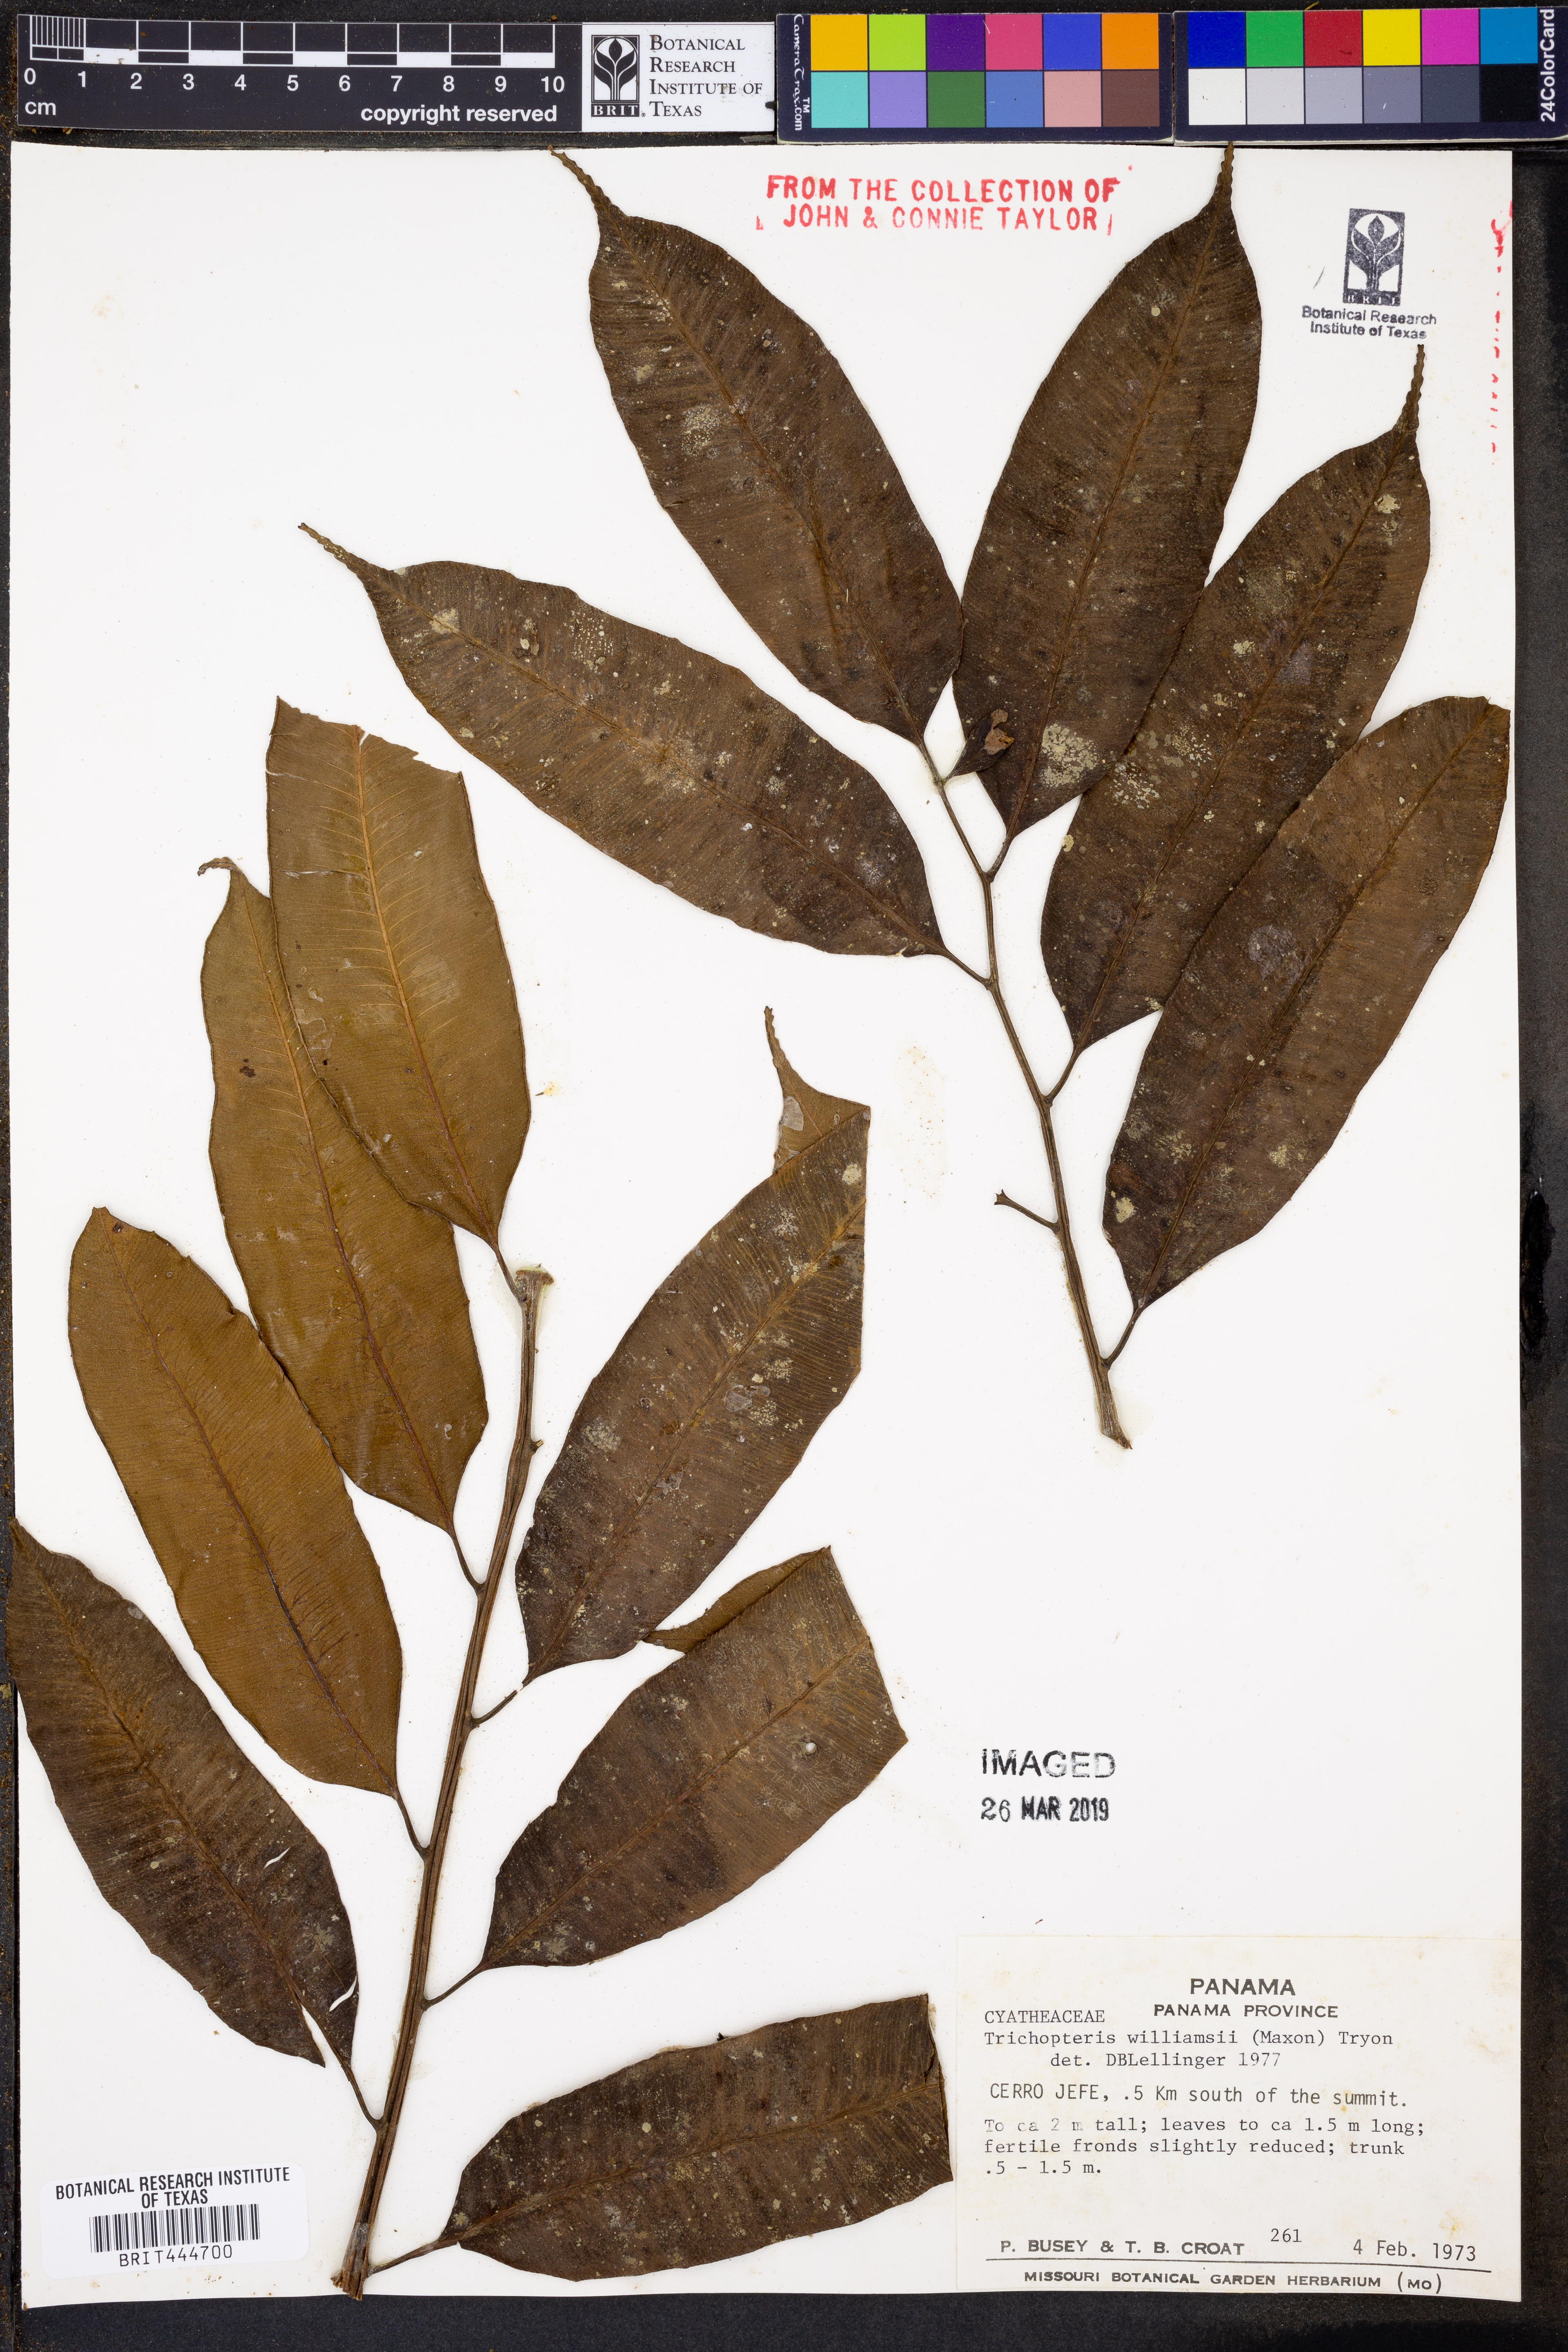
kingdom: Plantae
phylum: Tracheophyta
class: Polypodiopsida
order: Cyatheales
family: Cyatheaceae
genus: Cyathea
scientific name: Cyathea williamsii
